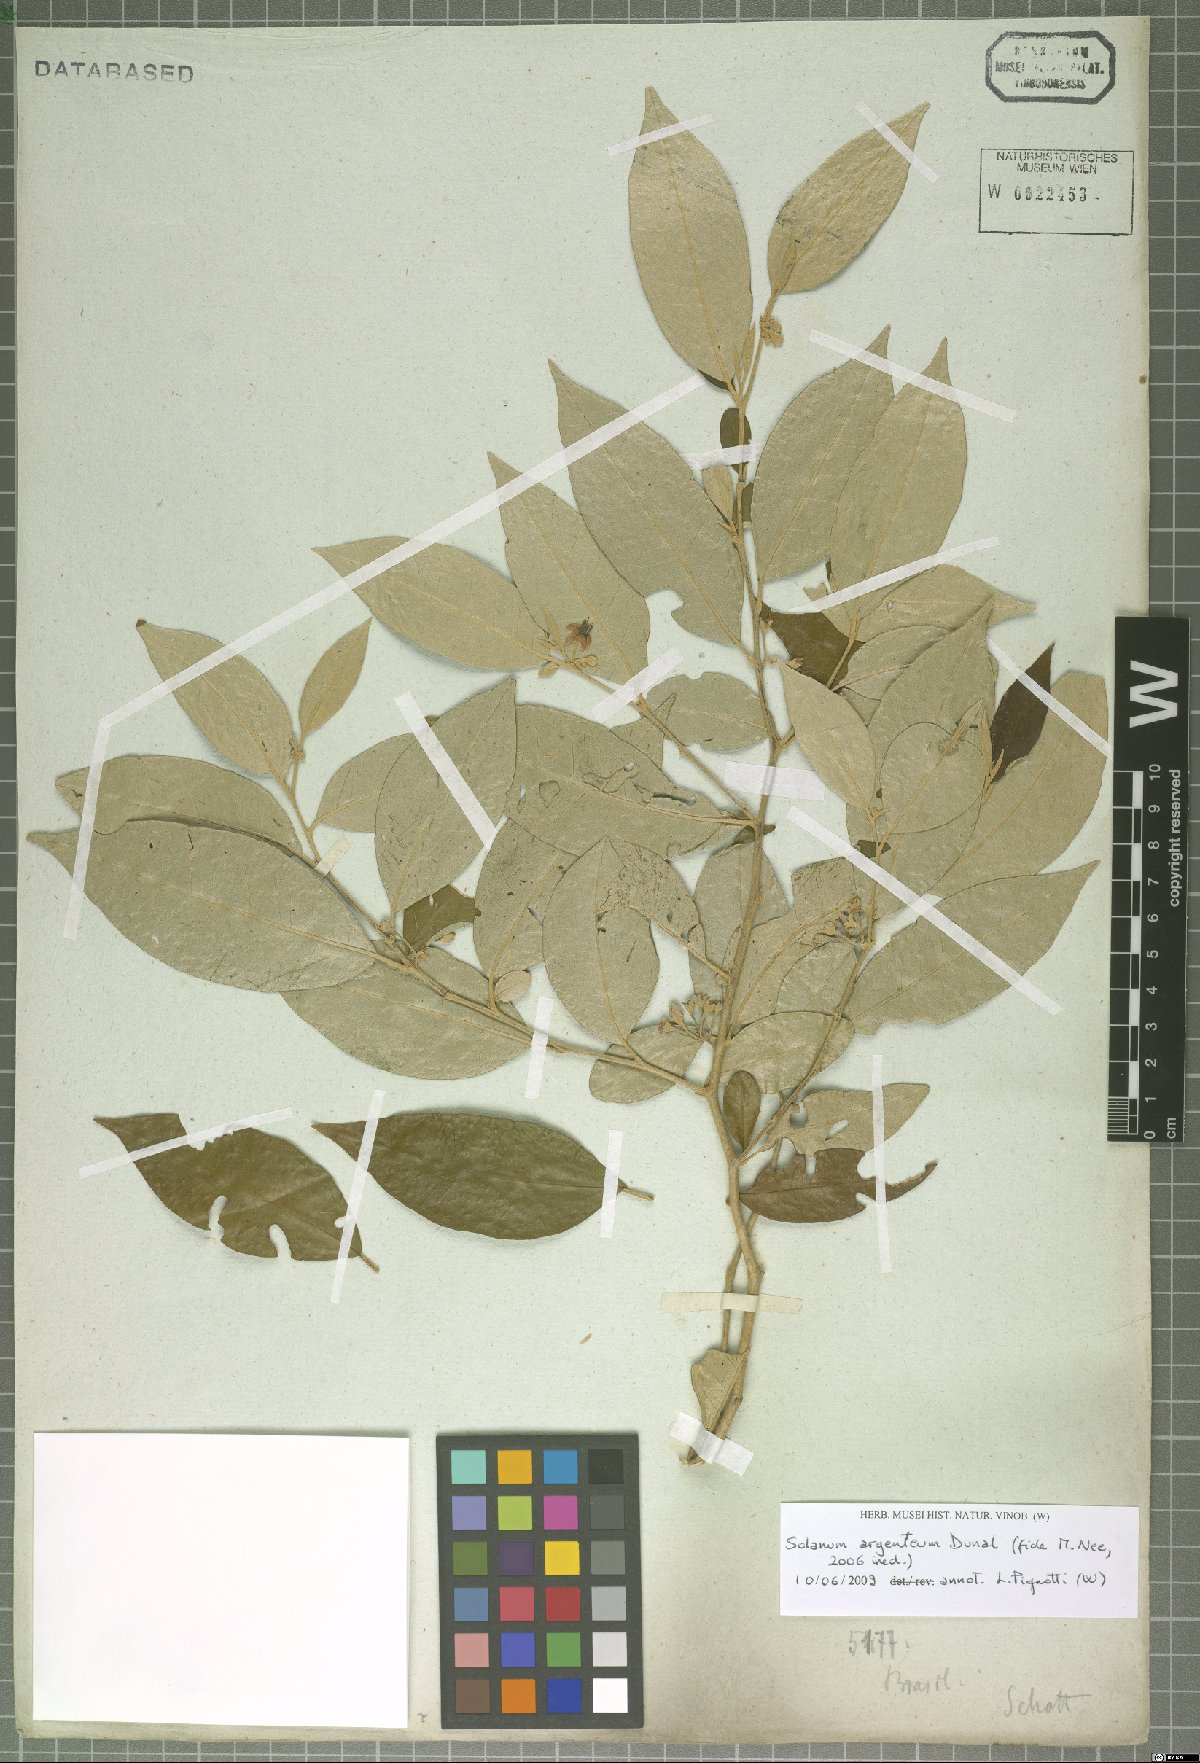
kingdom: Plantae
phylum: Tracheophyta
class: Magnoliopsida
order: Solanales
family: Solanaceae
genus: Solanum
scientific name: Solanum swartzianum
